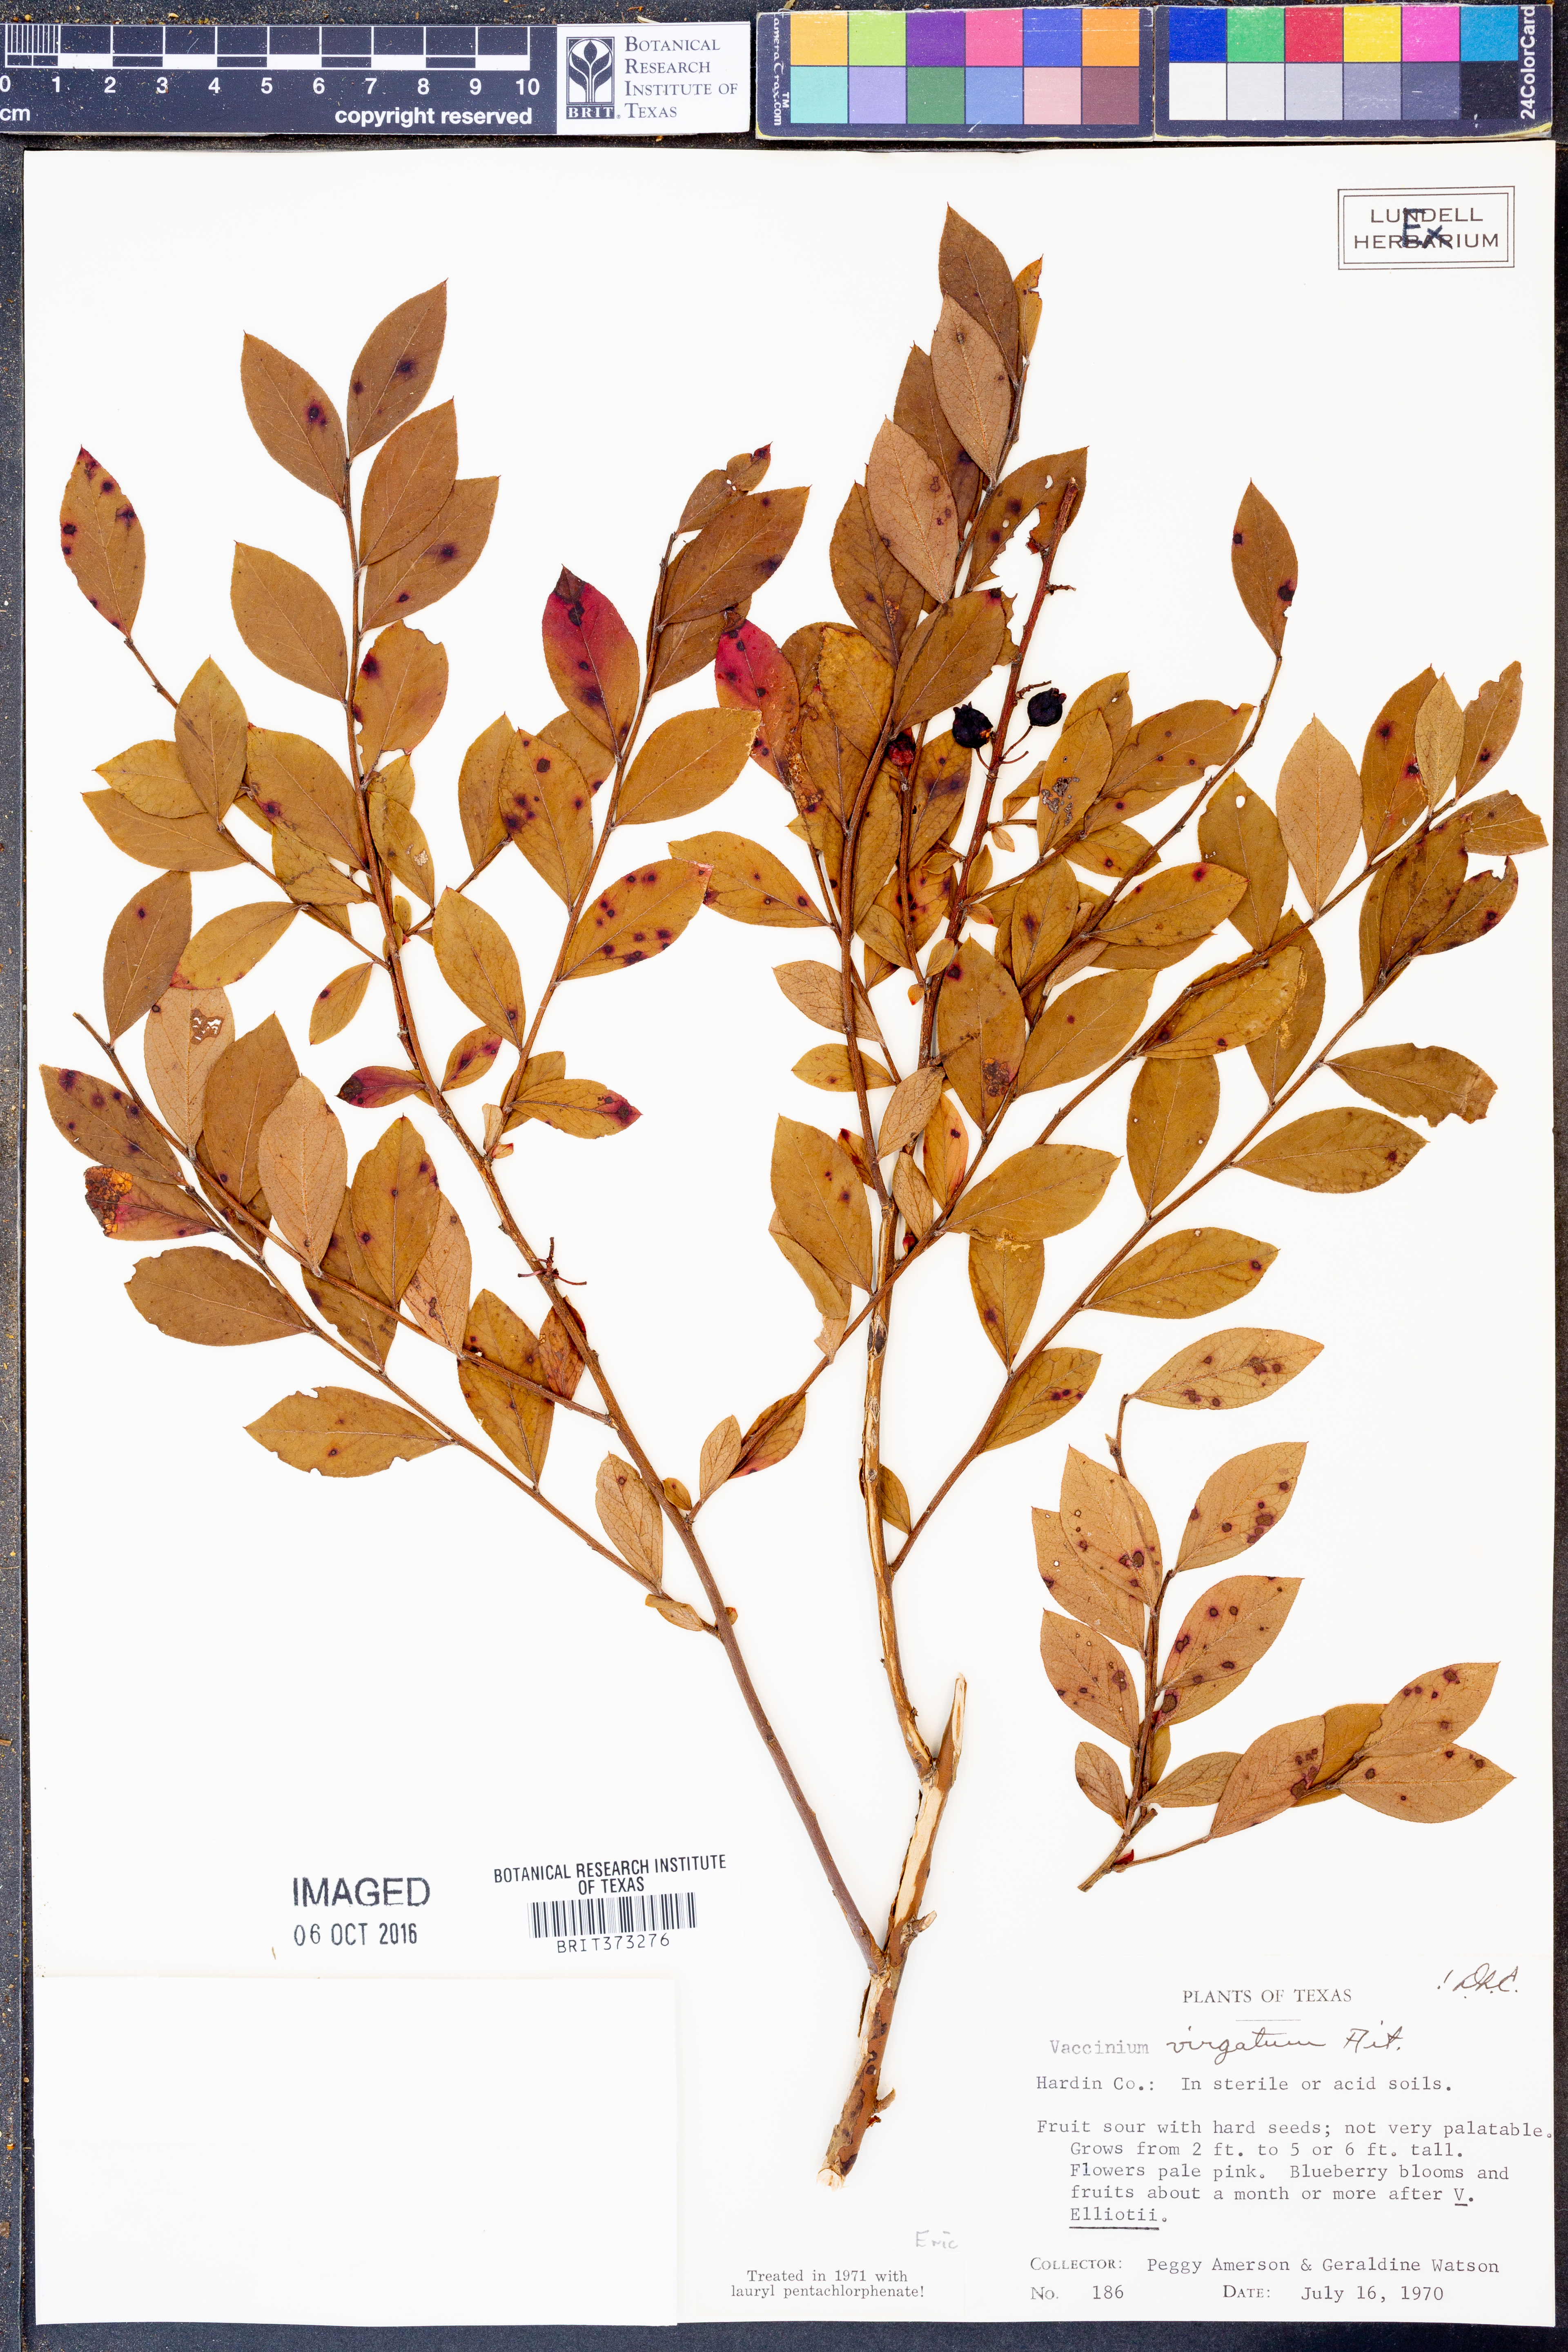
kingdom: Plantae
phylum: Tracheophyta
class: Magnoliopsida
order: Ericales
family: Ericaceae
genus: Vaccinium
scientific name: Vaccinium corymbosum
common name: Blueberry
